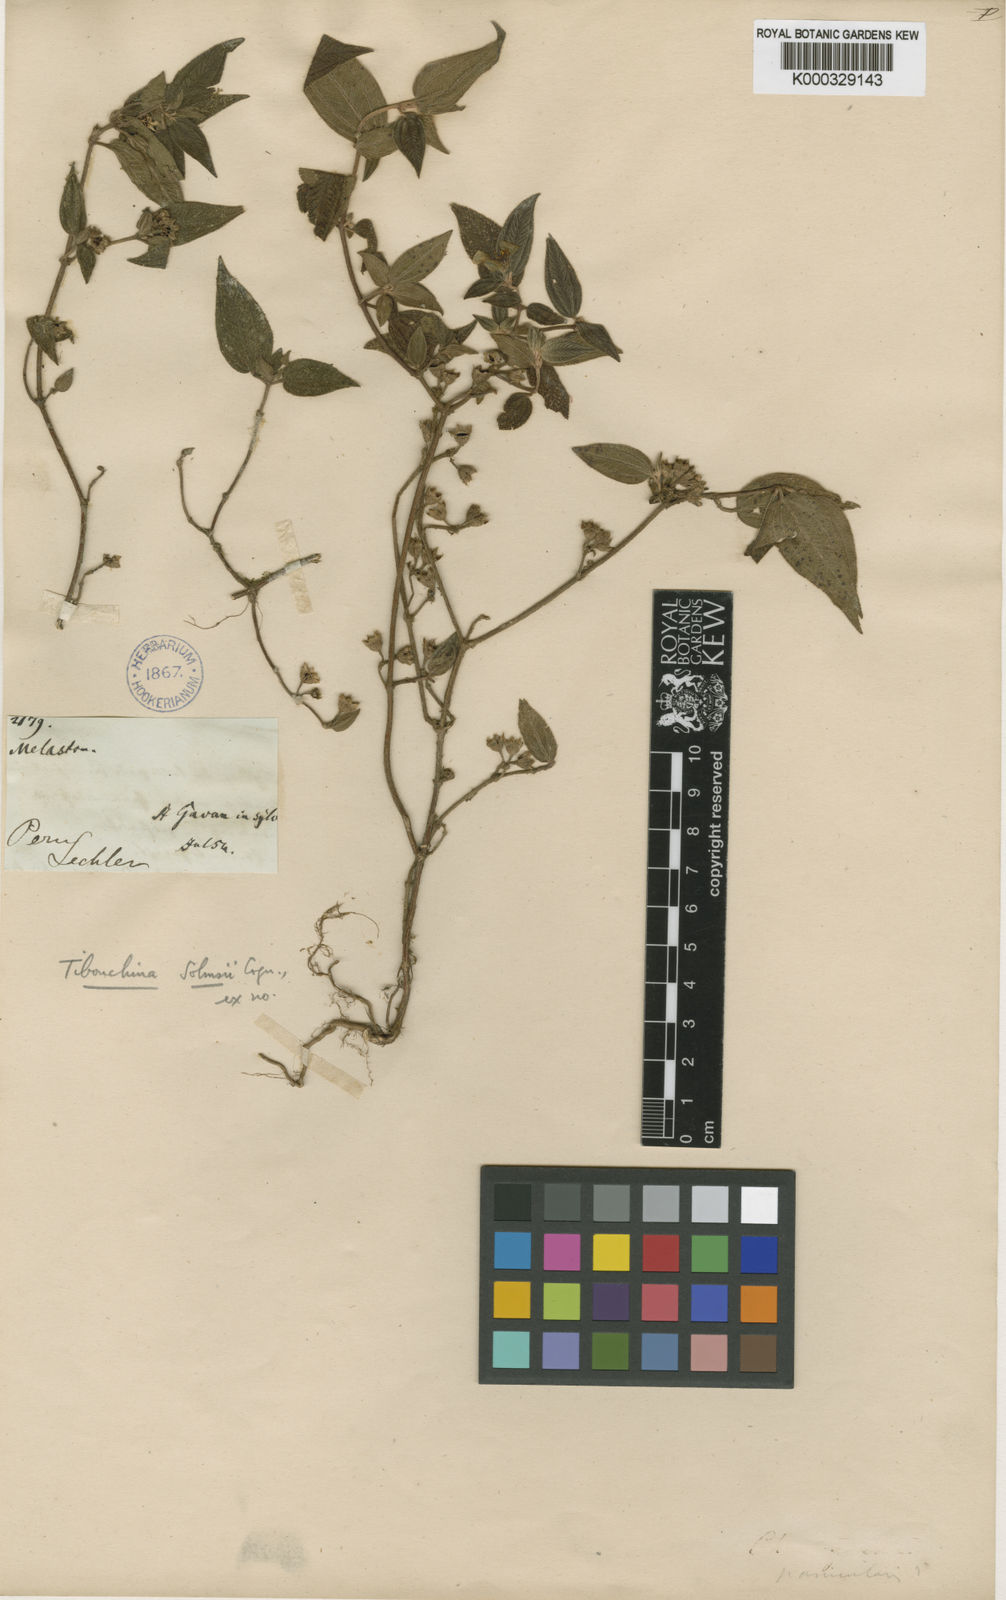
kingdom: Plantae
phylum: Tracheophyta
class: Magnoliopsida
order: Myrtales
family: Melastomataceae
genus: Chaetogastra
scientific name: Chaetogastra solmsii
